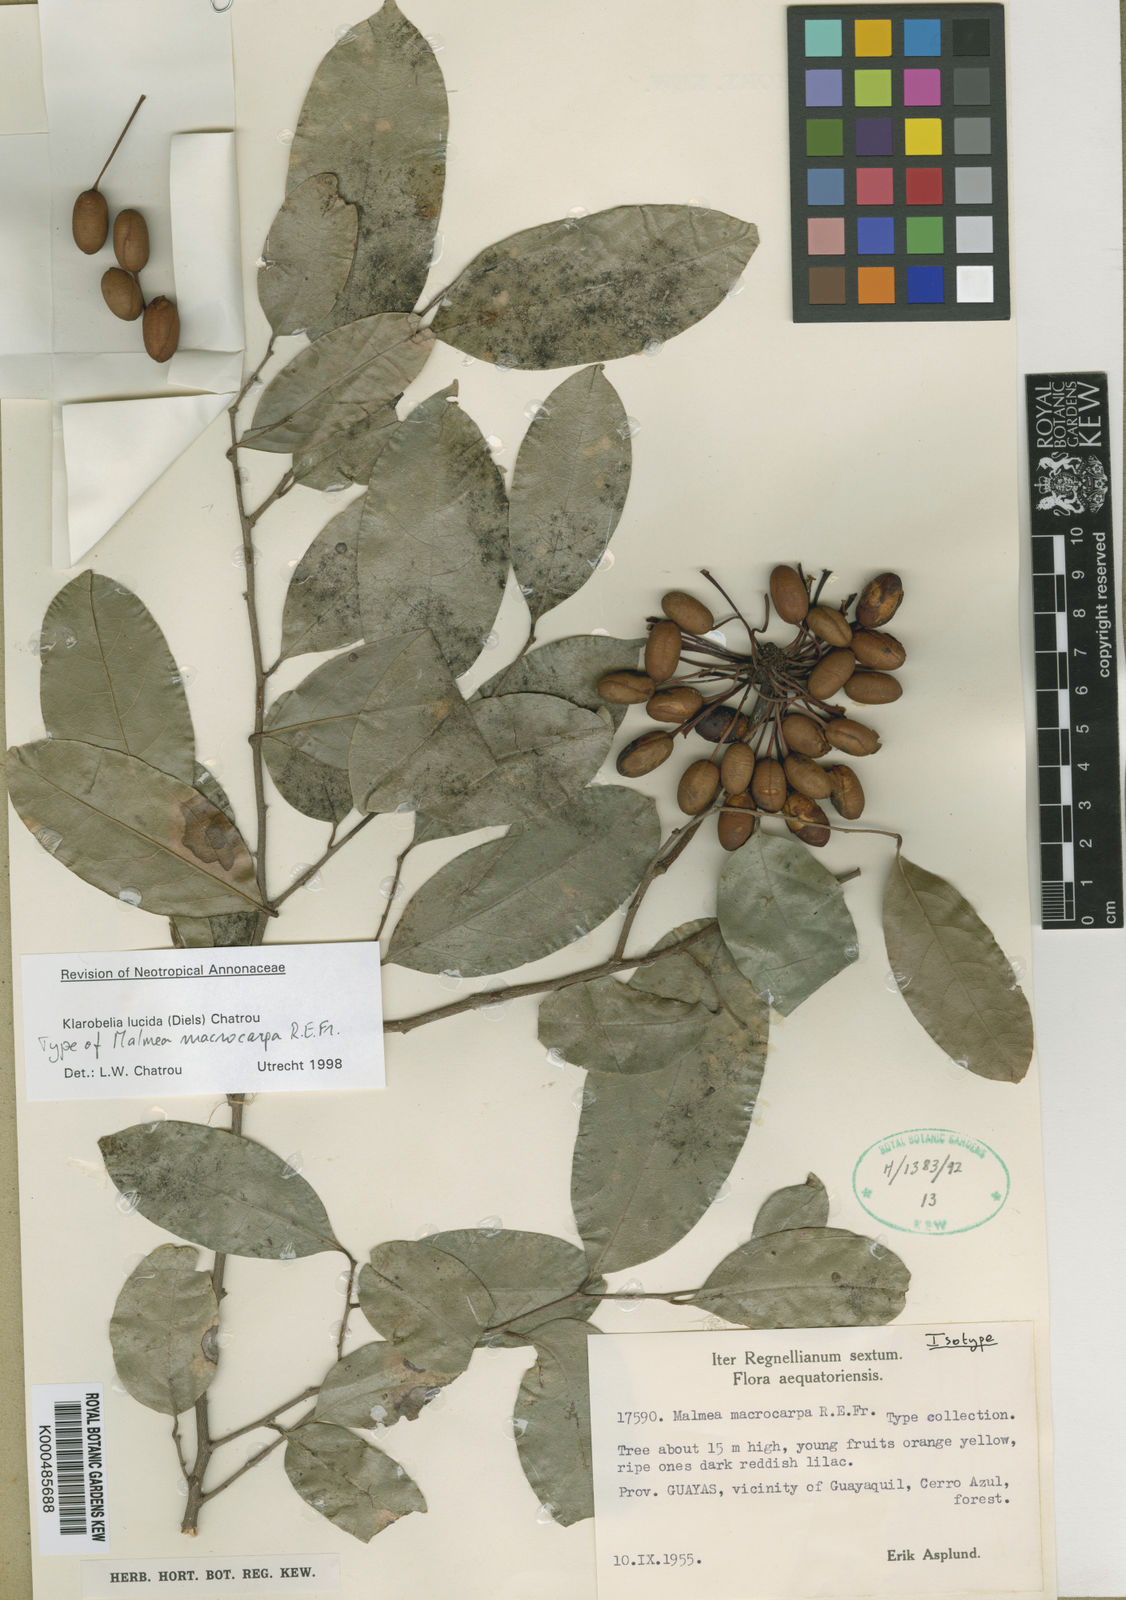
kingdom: Plantae
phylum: Tracheophyta
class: Magnoliopsida
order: Magnoliales
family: Annonaceae
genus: Klarobelia
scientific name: Klarobelia lucida
